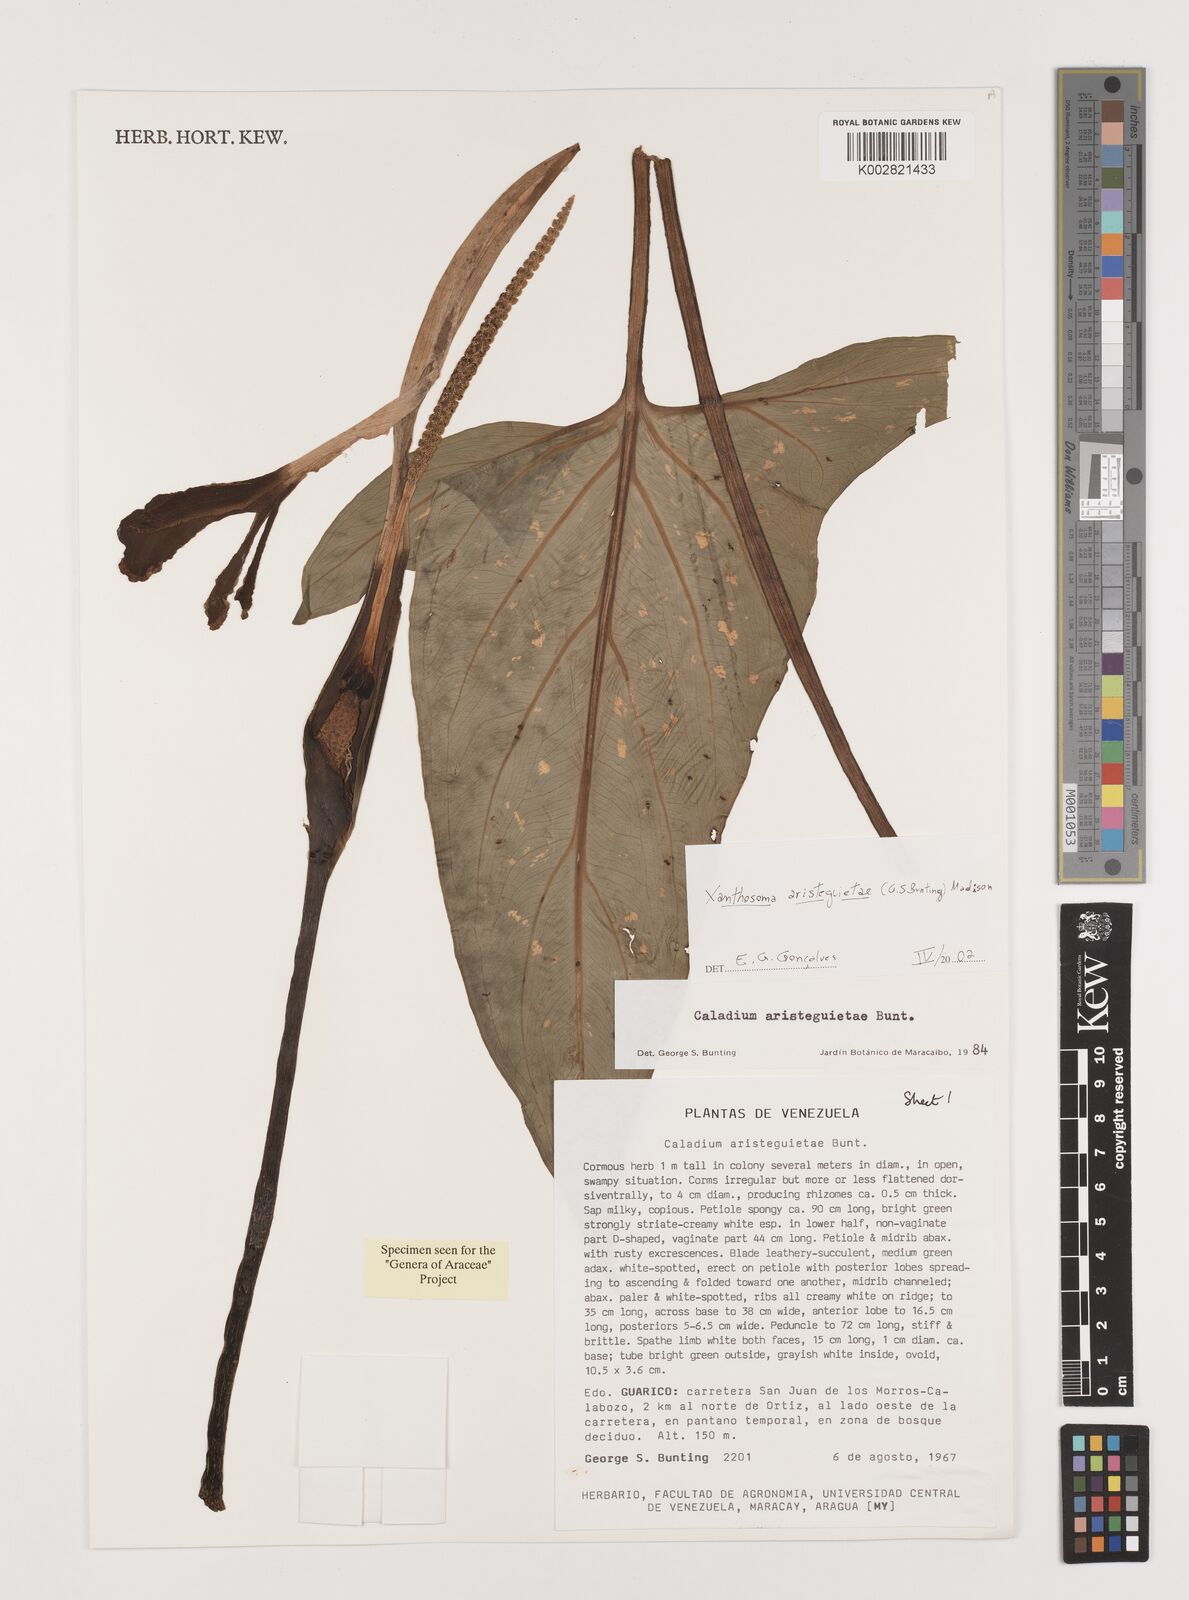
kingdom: Plantae
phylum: Tracheophyta
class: Liliopsida
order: Alismatales
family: Araceae
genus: Xanthosoma
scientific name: Xanthosoma aristeguietae
